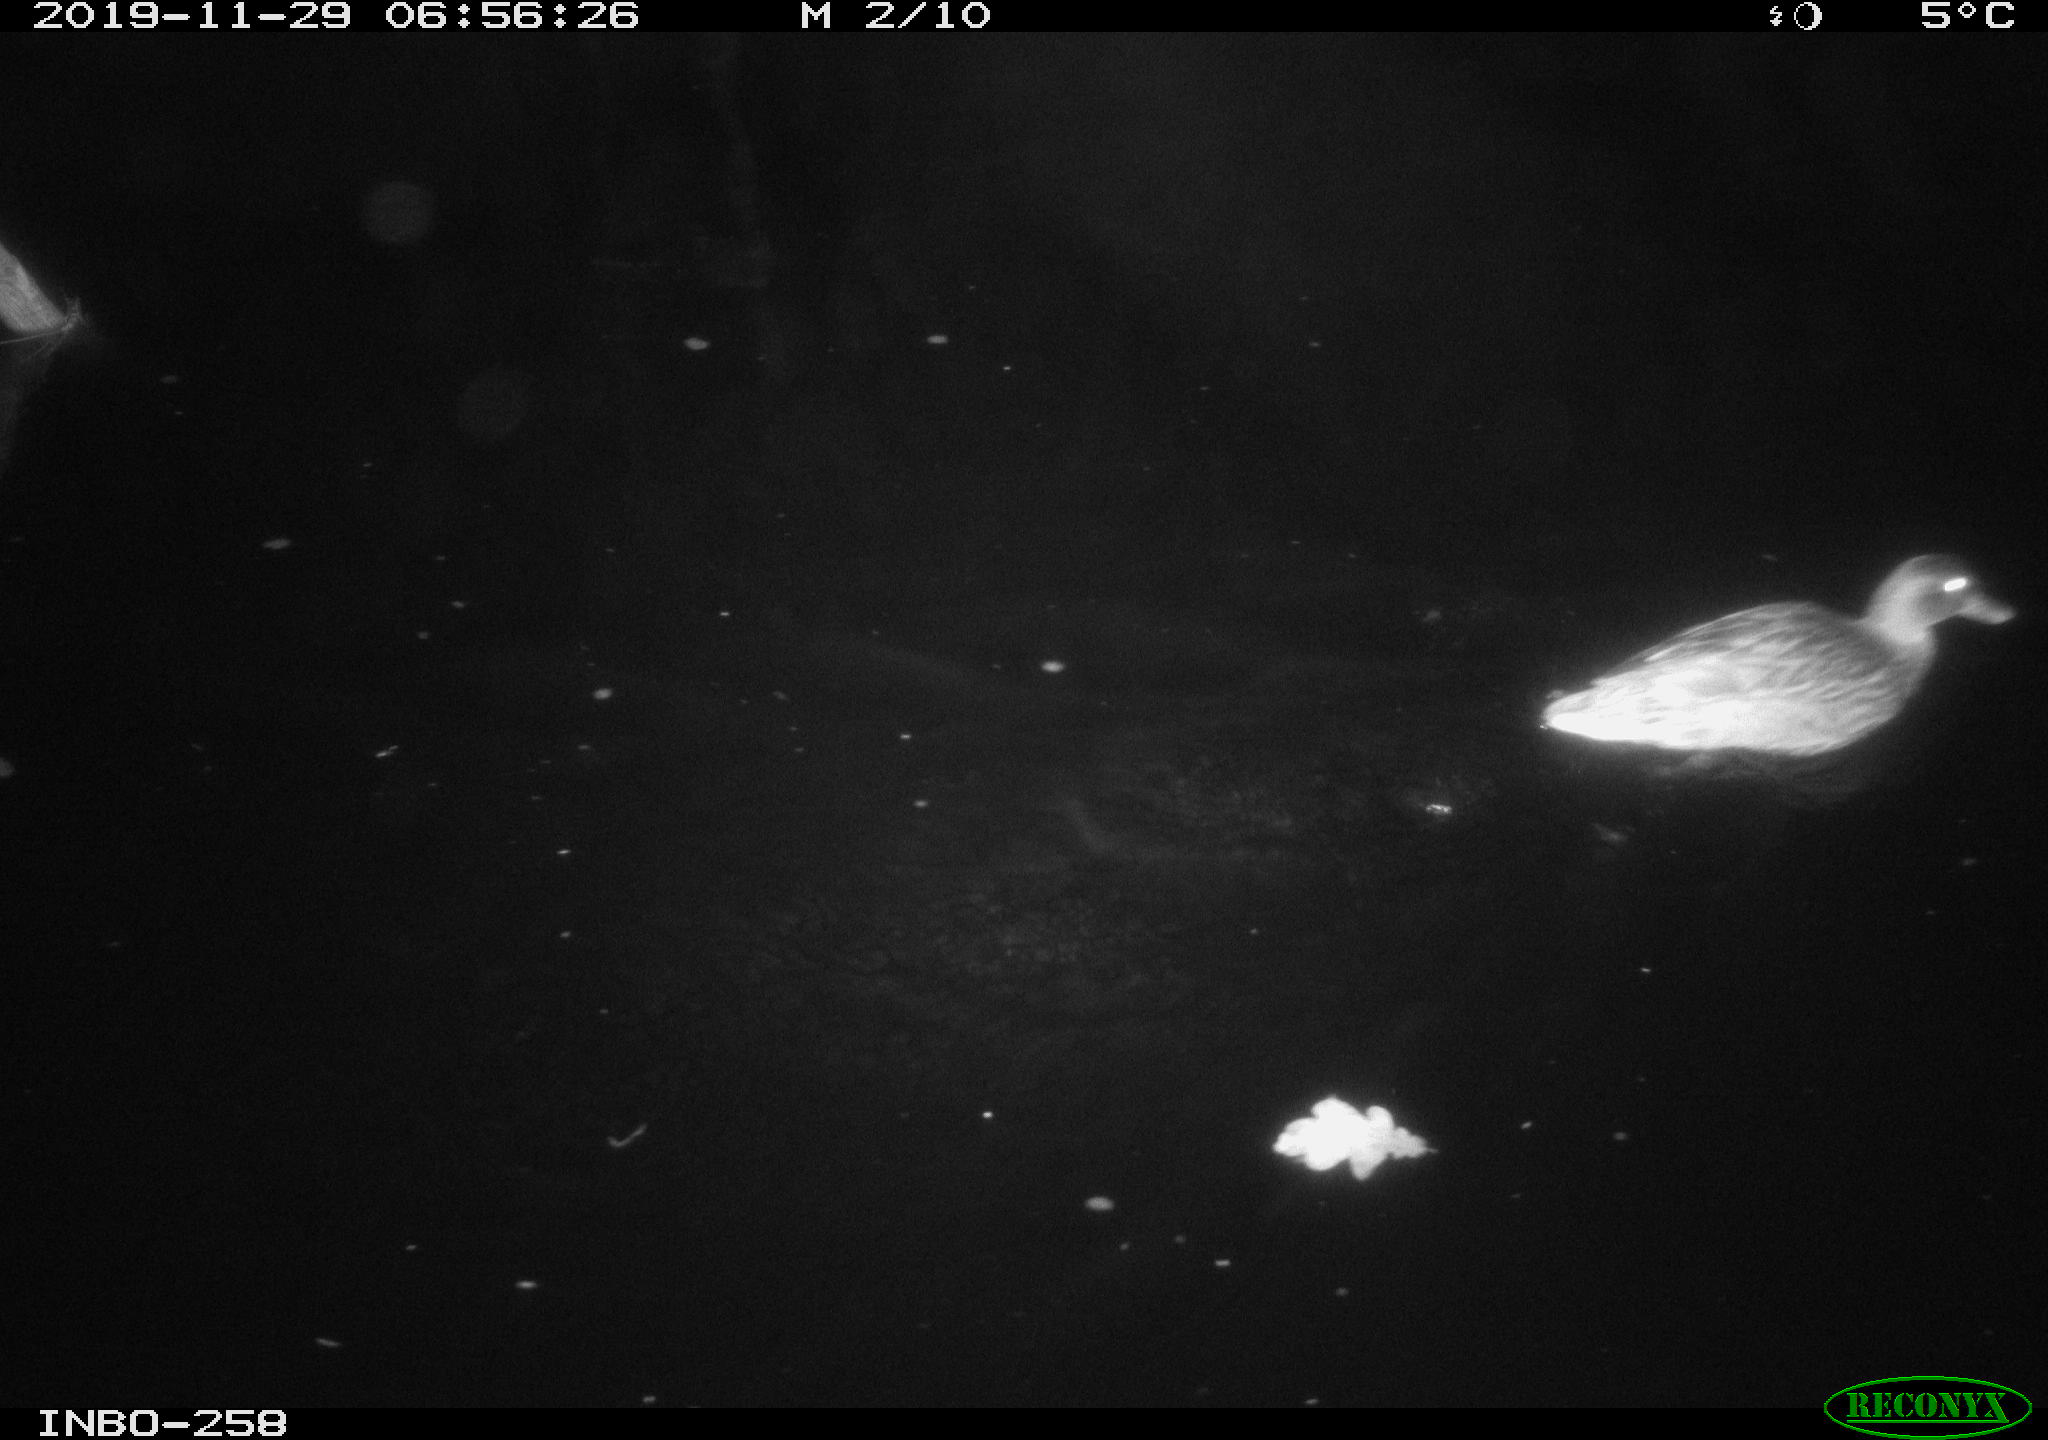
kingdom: Animalia
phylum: Chordata
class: Aves
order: Anseriformes
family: Anatidae
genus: Anas
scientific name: Anas platyrhynchos
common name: Mallard
